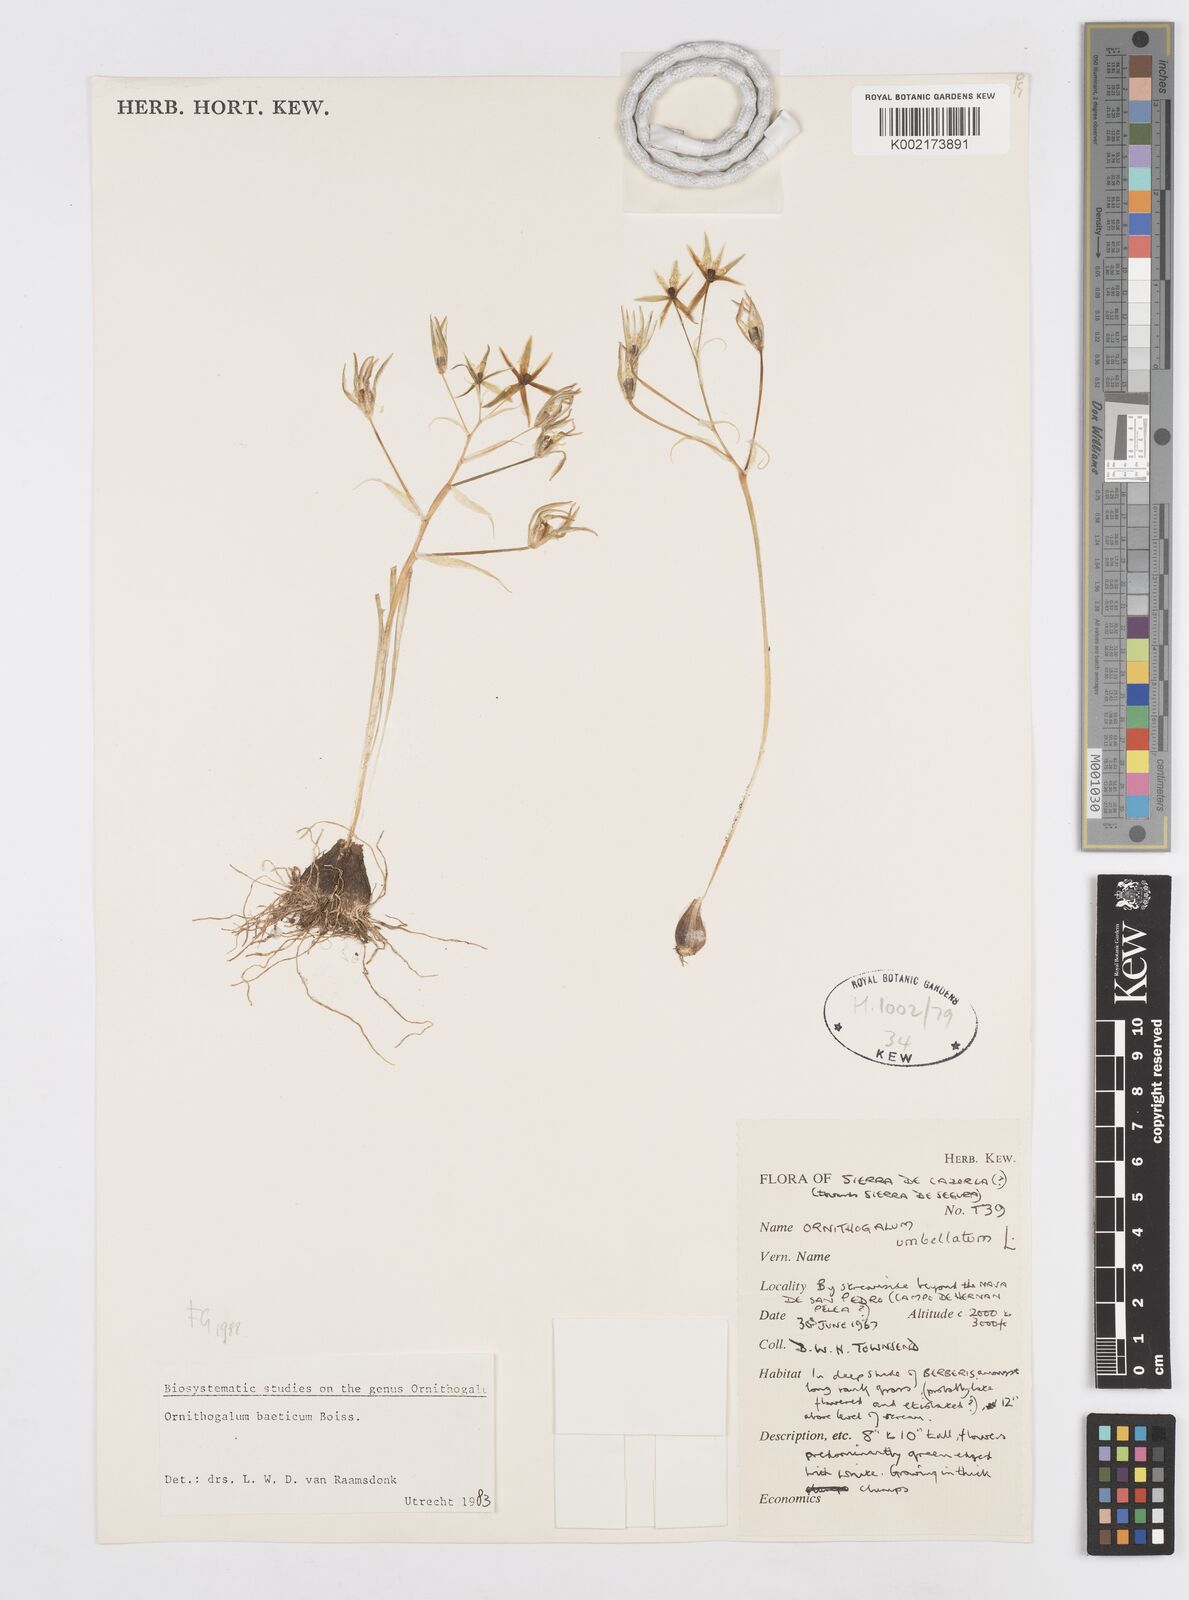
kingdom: Plantae
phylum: Tracheophyta
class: Liliopsida
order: Asparagales
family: Asparagaceae
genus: Ornithogalum
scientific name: Ornithogalum orthophyllum
